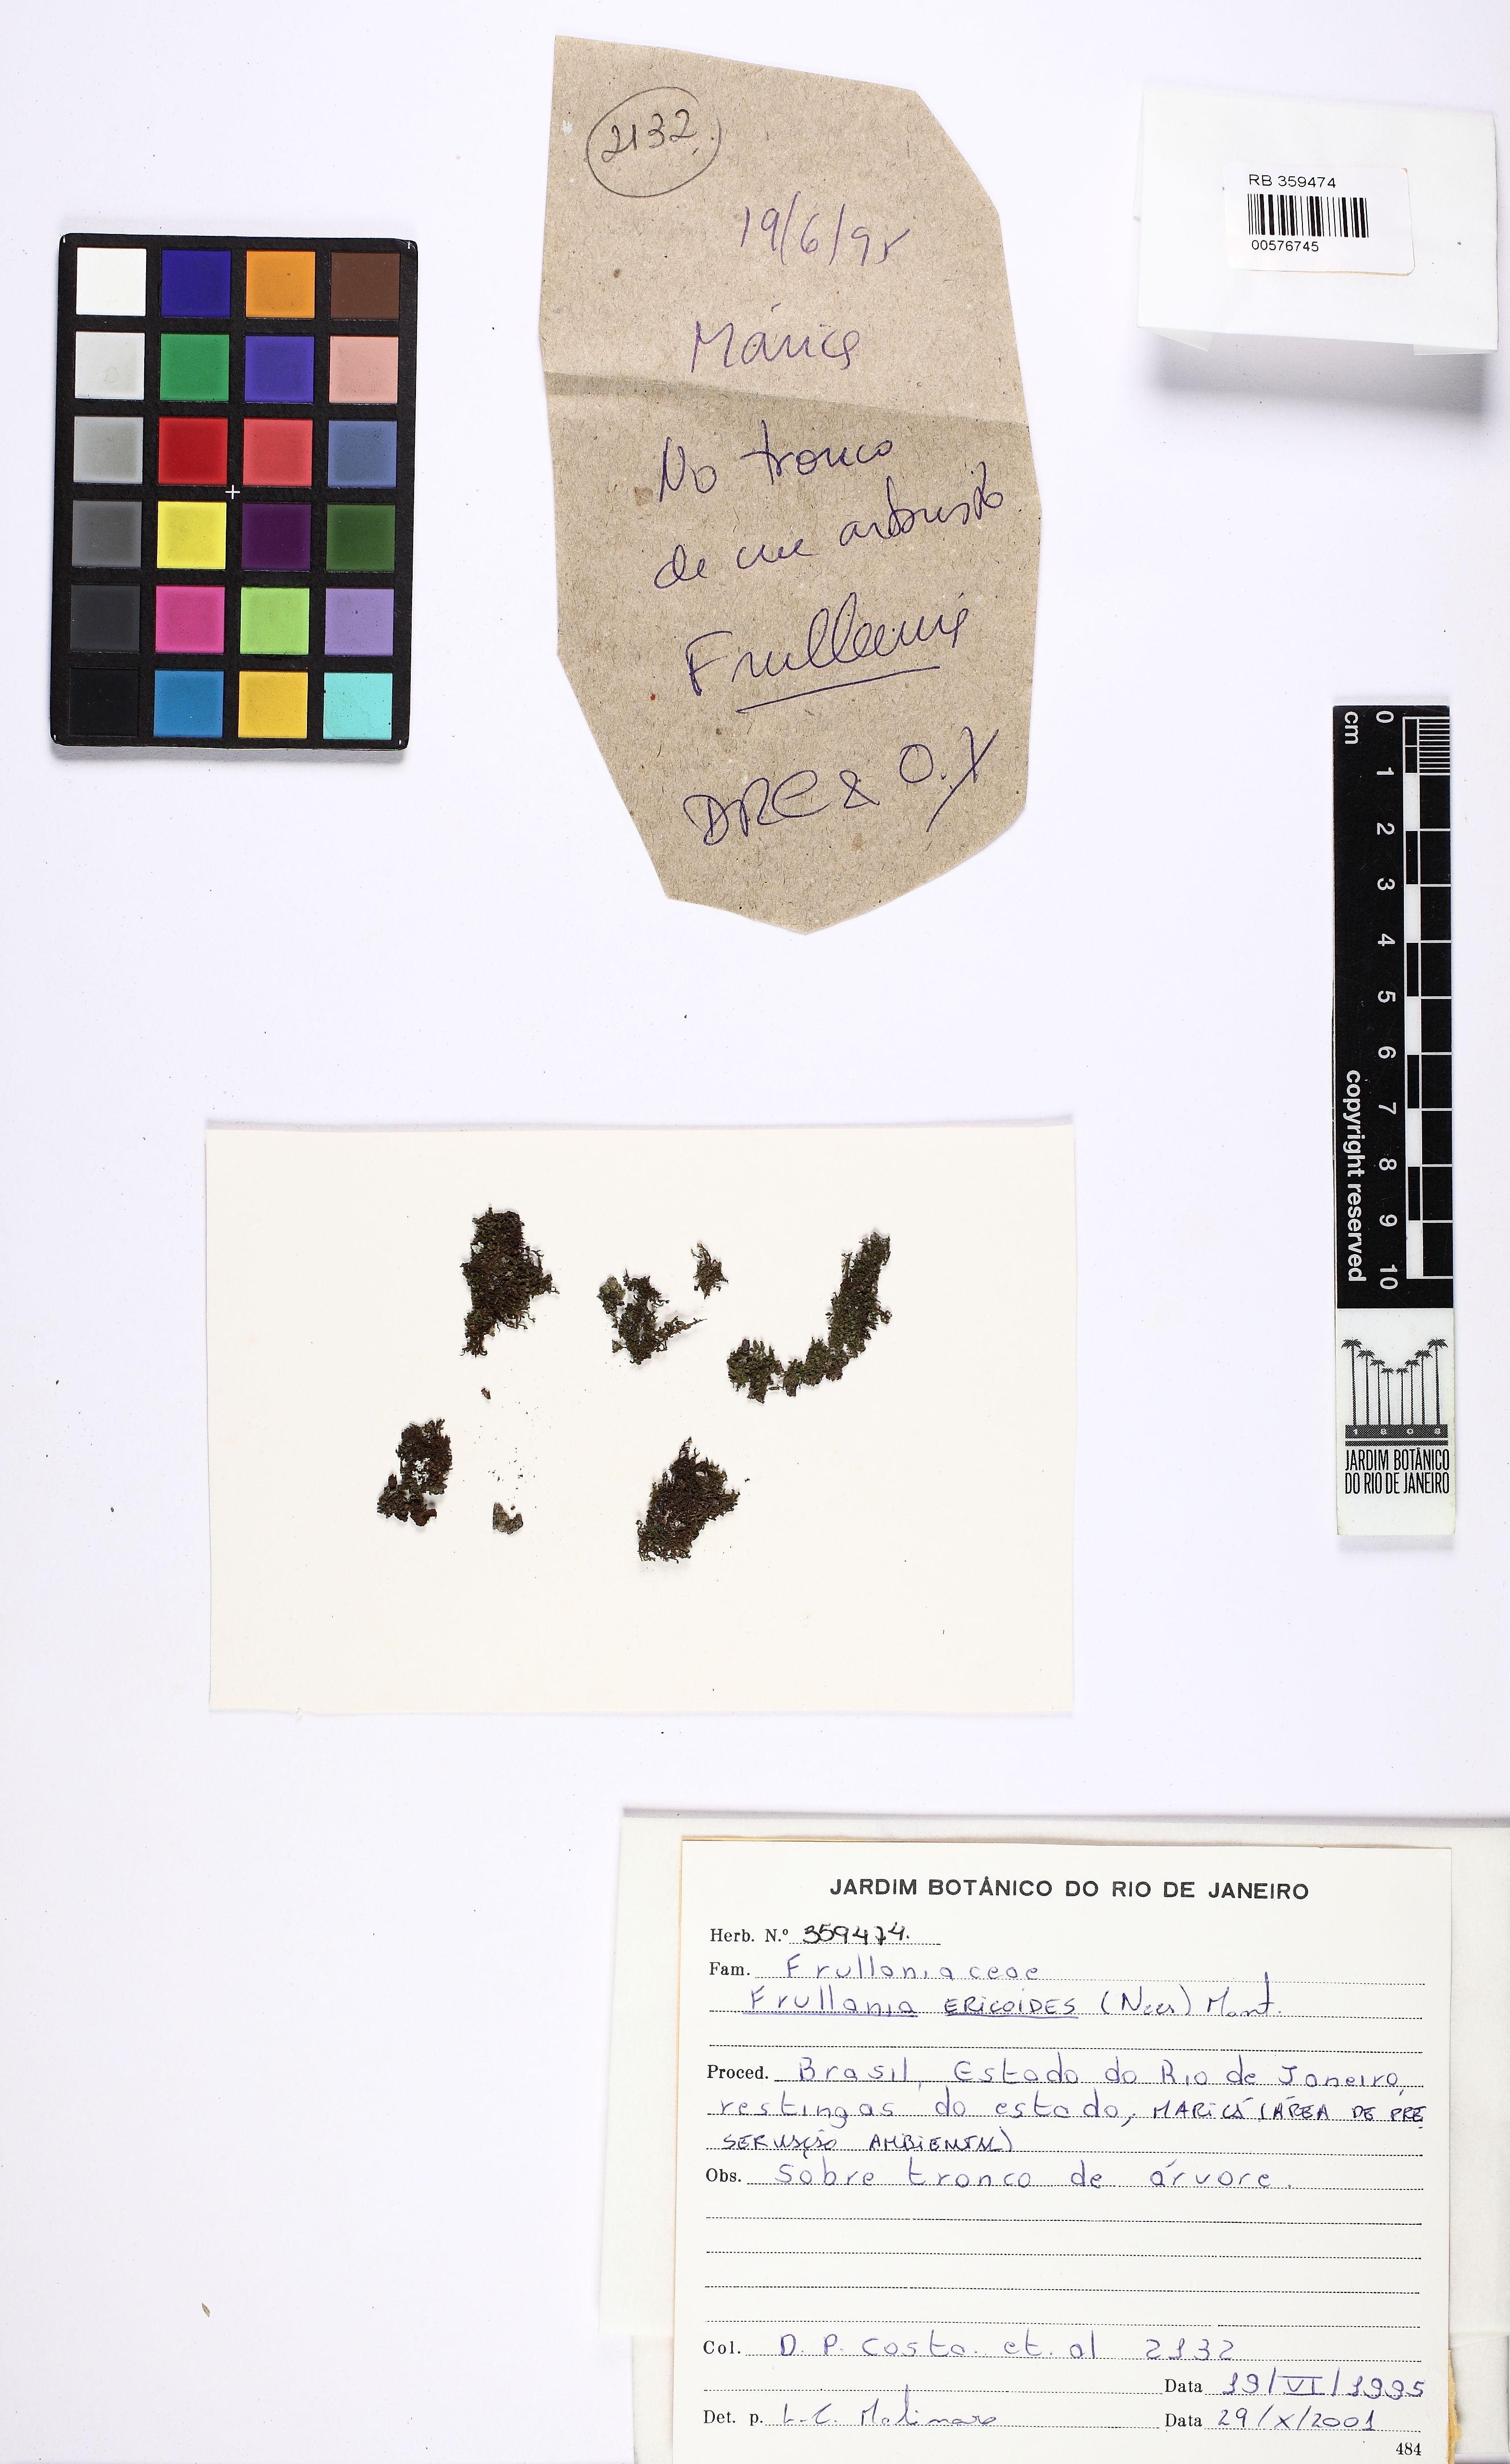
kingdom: Plantae
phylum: Marchantiophyta
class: Jungermanniopsida
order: Porellales
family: Frullaniaceae
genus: Frullania
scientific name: Frullania ericoides
